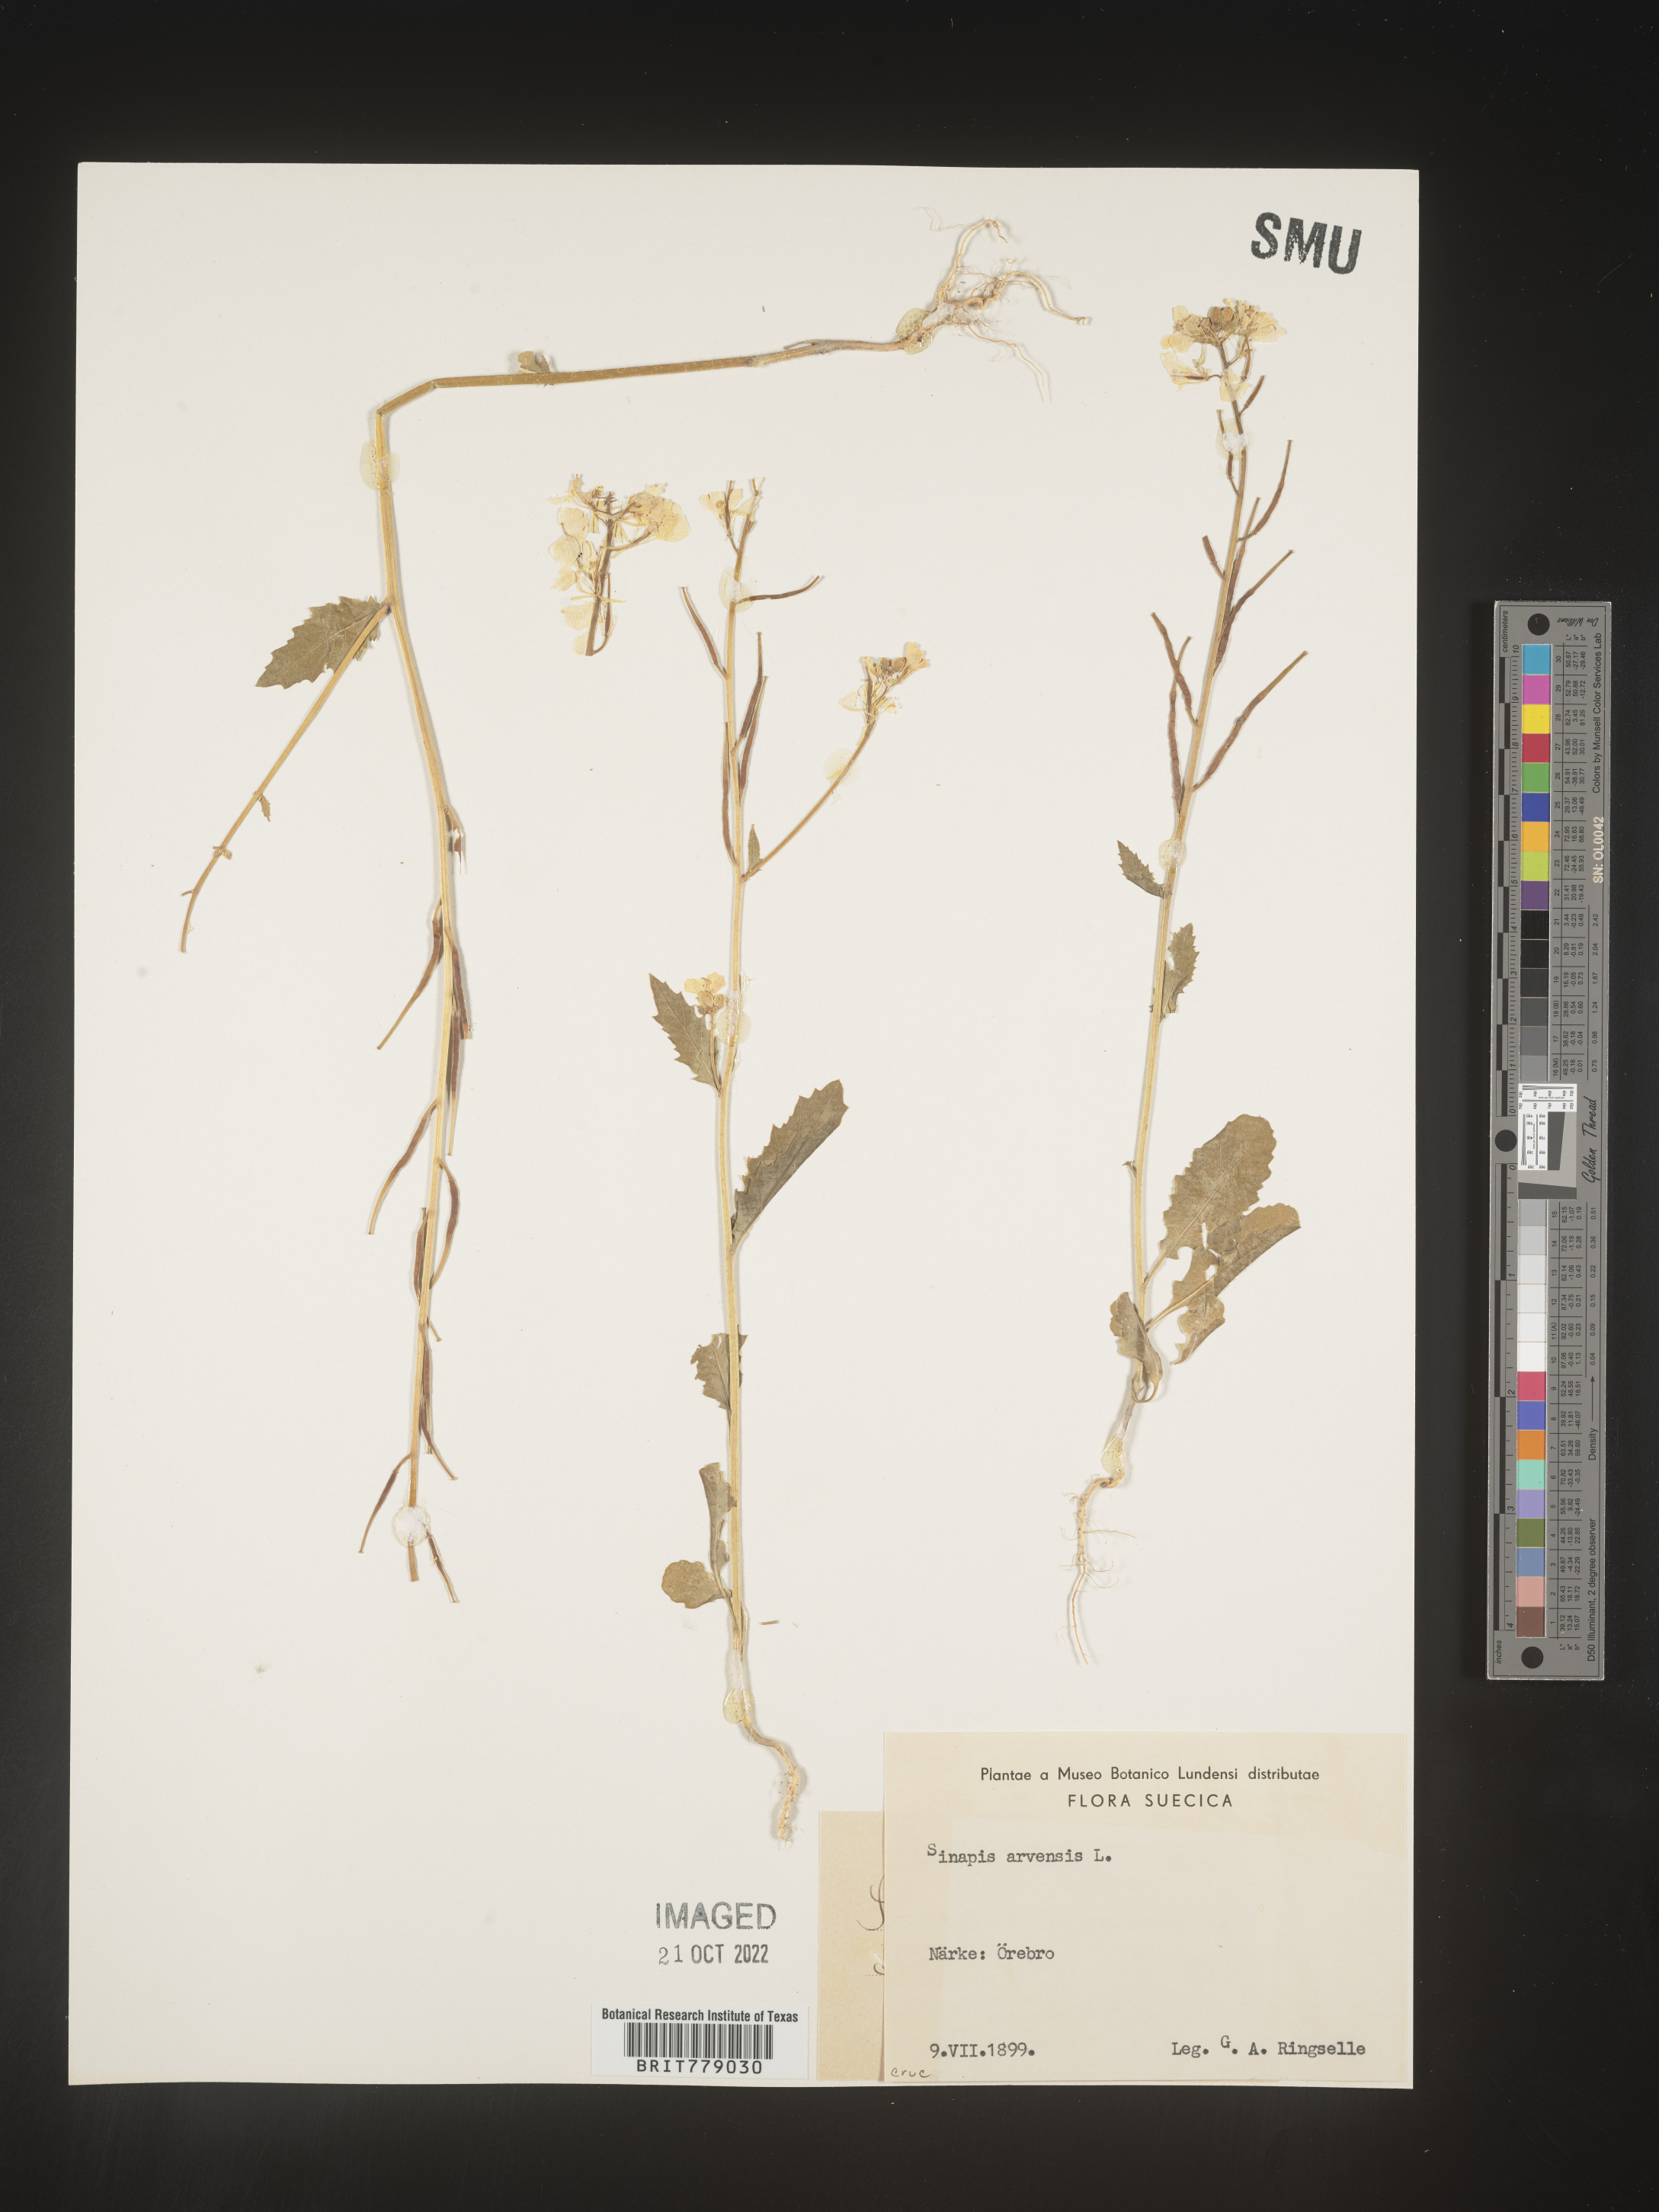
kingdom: Plantae
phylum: Tracheophyta
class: Magnoliopsida
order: Brassicales
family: Brassicaceae
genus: Sinapis
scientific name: Sinapis
